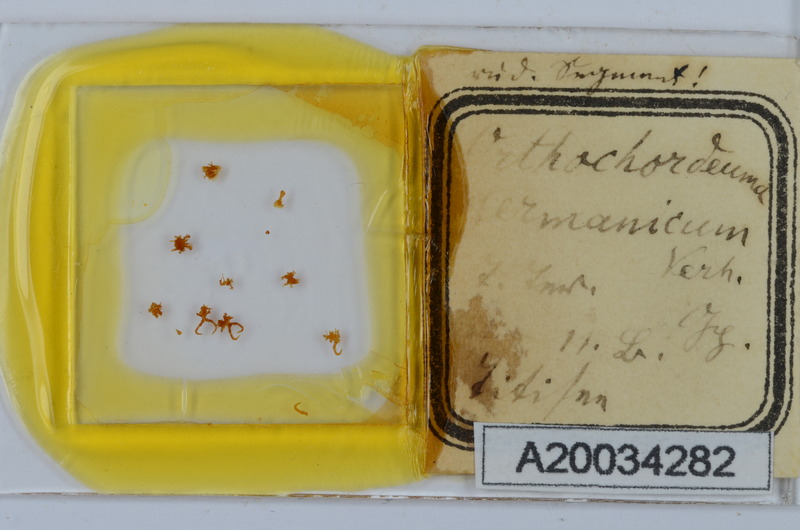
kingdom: Animalia
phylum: Arthropoda
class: Diplopoda
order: Chordeumatida
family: Chordeumatidae
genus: Mycogona
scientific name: Mycogona germanica
